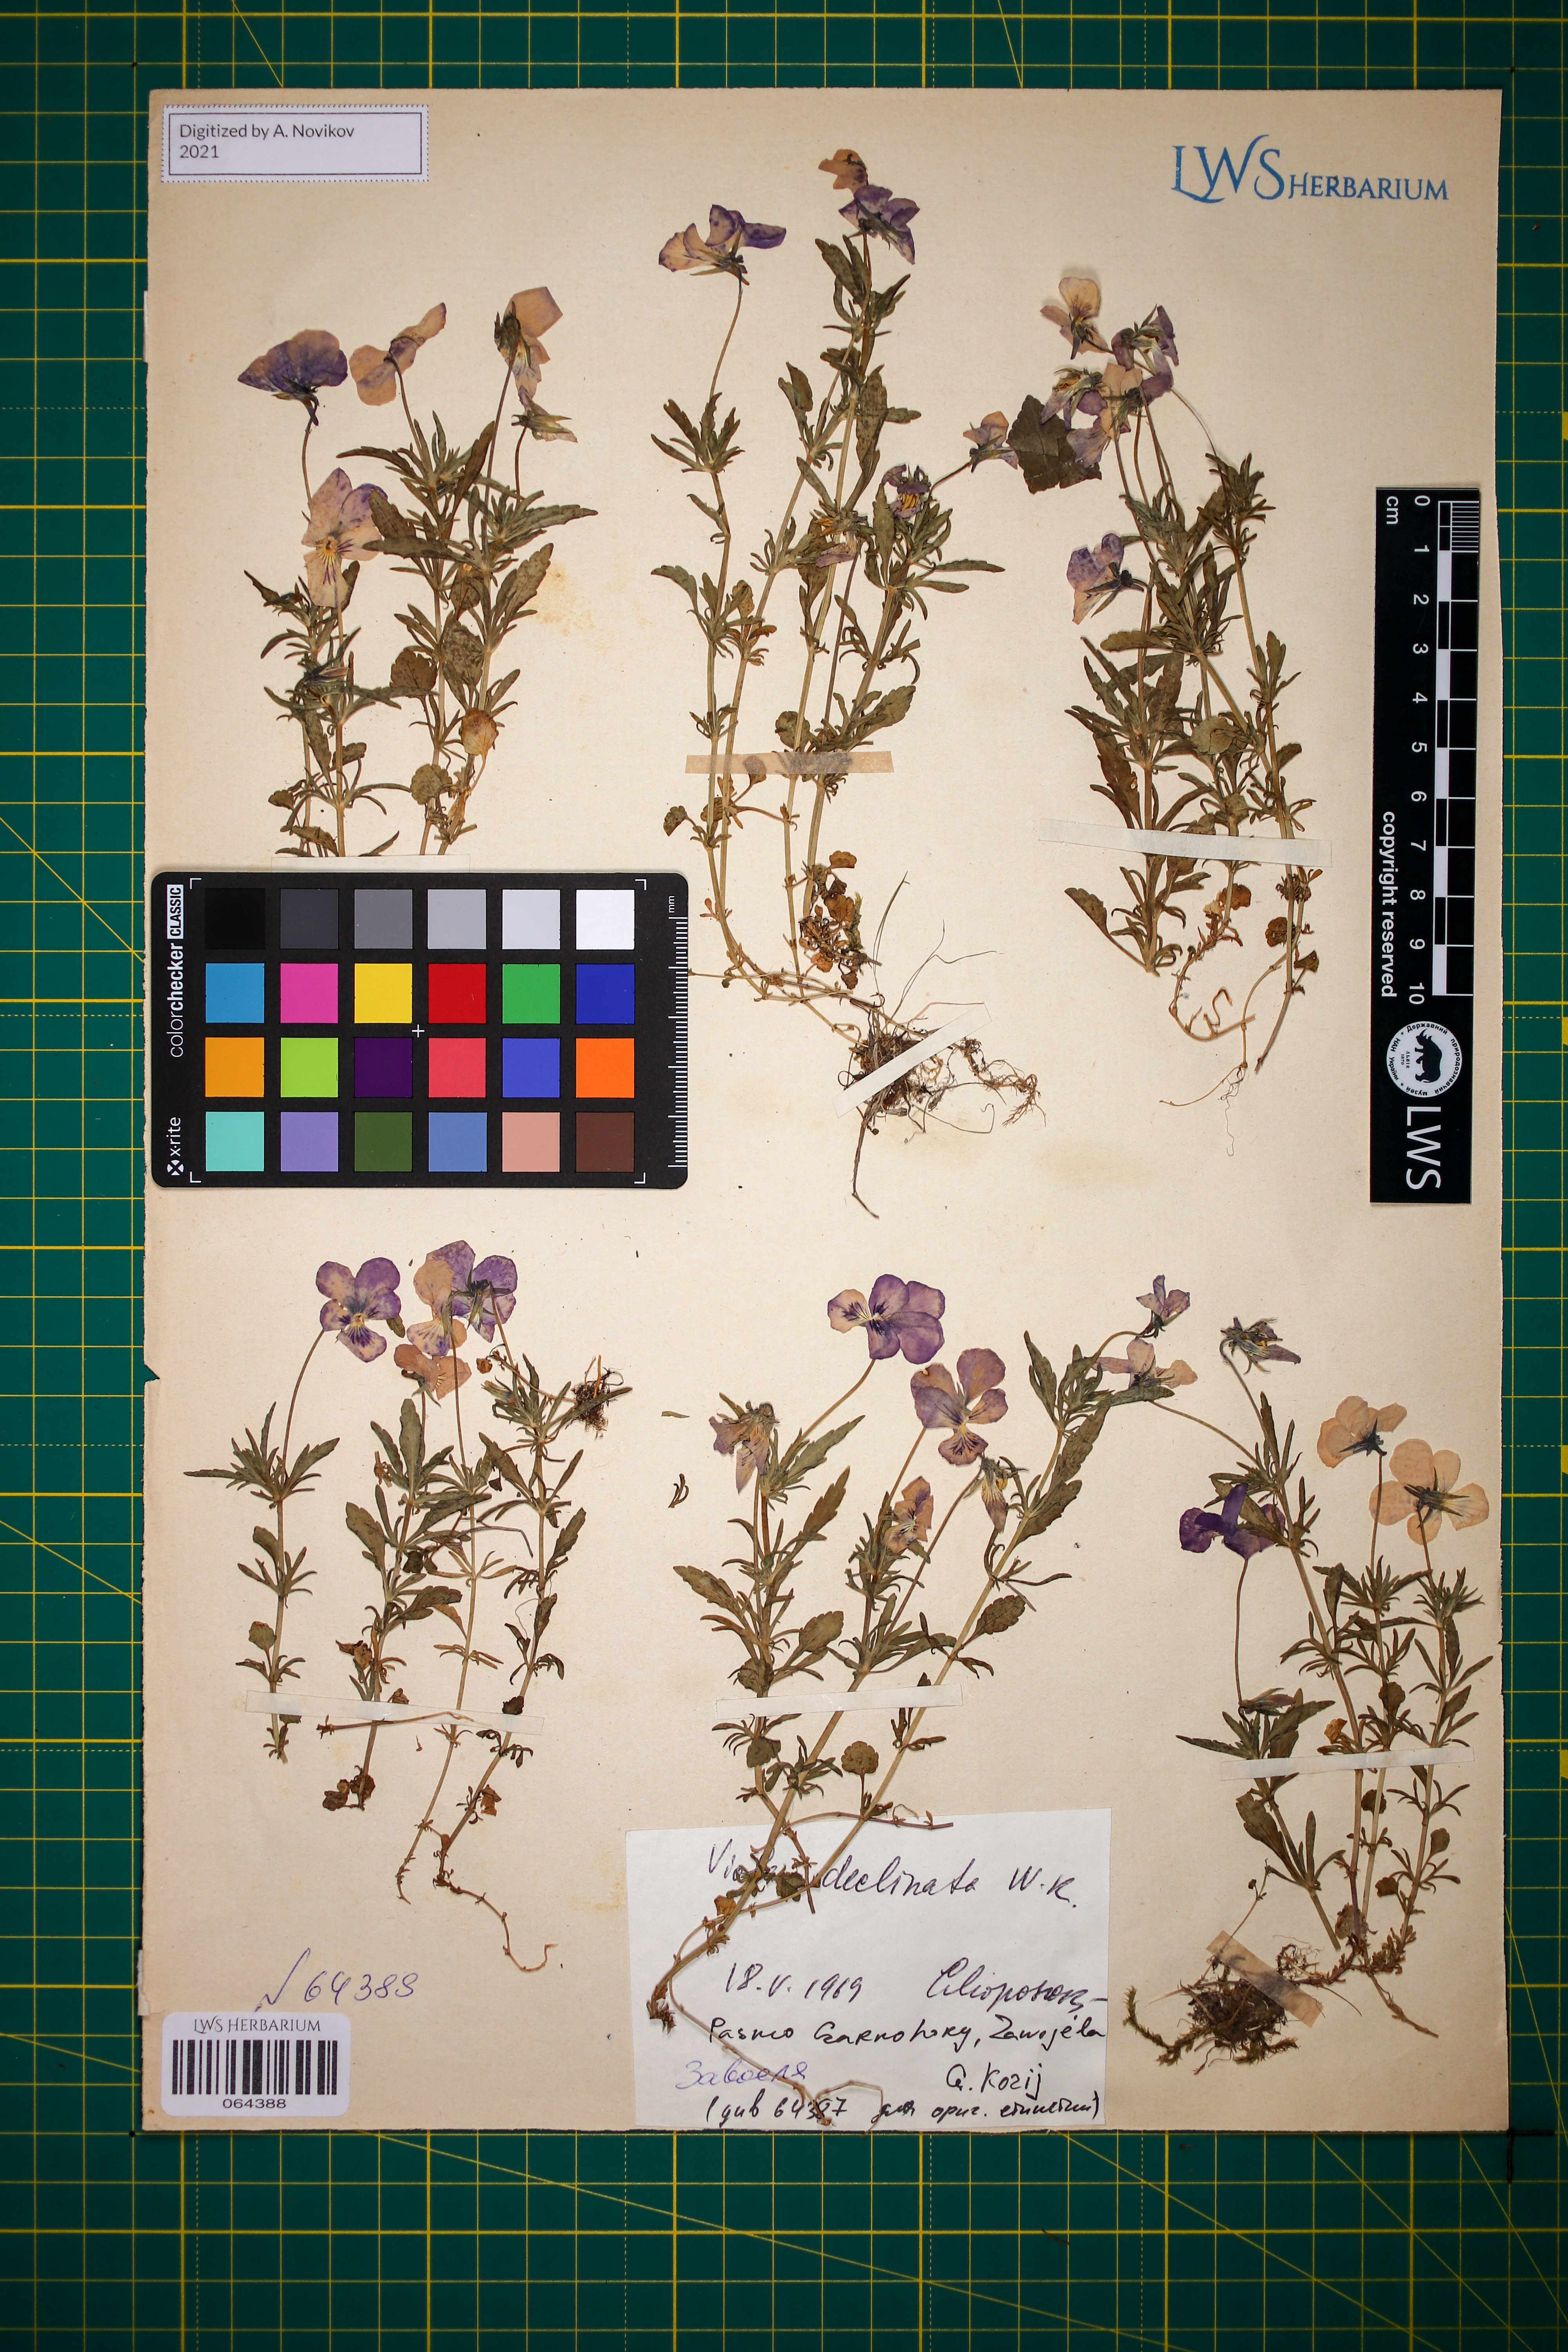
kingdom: Plantae
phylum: Tracheophyta
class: Magnoliopsida
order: Malpighiales
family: Violaceae
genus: Viola
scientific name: Viola declinata
